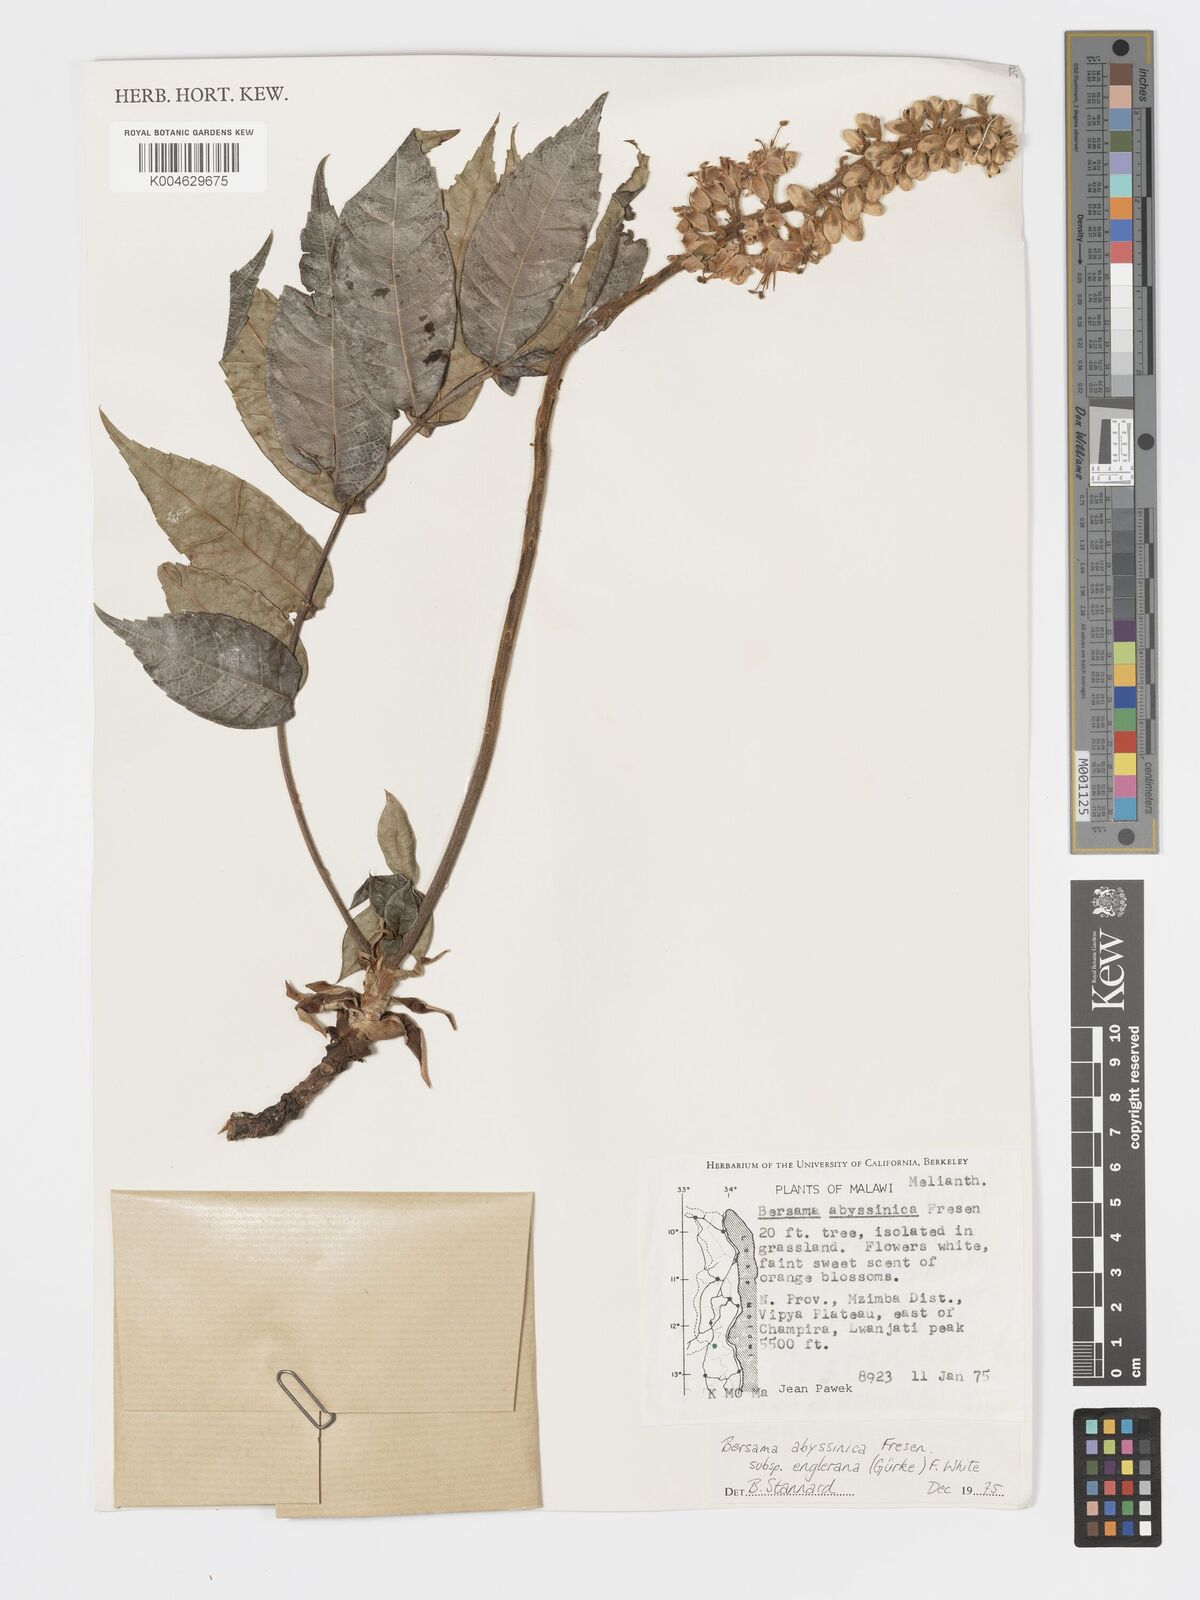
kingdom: Plantae
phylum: Tracheophyta
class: Magnoliopsida
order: Geraniales
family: Melianthaceae
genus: Bersama
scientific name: Bersama abyssinica
